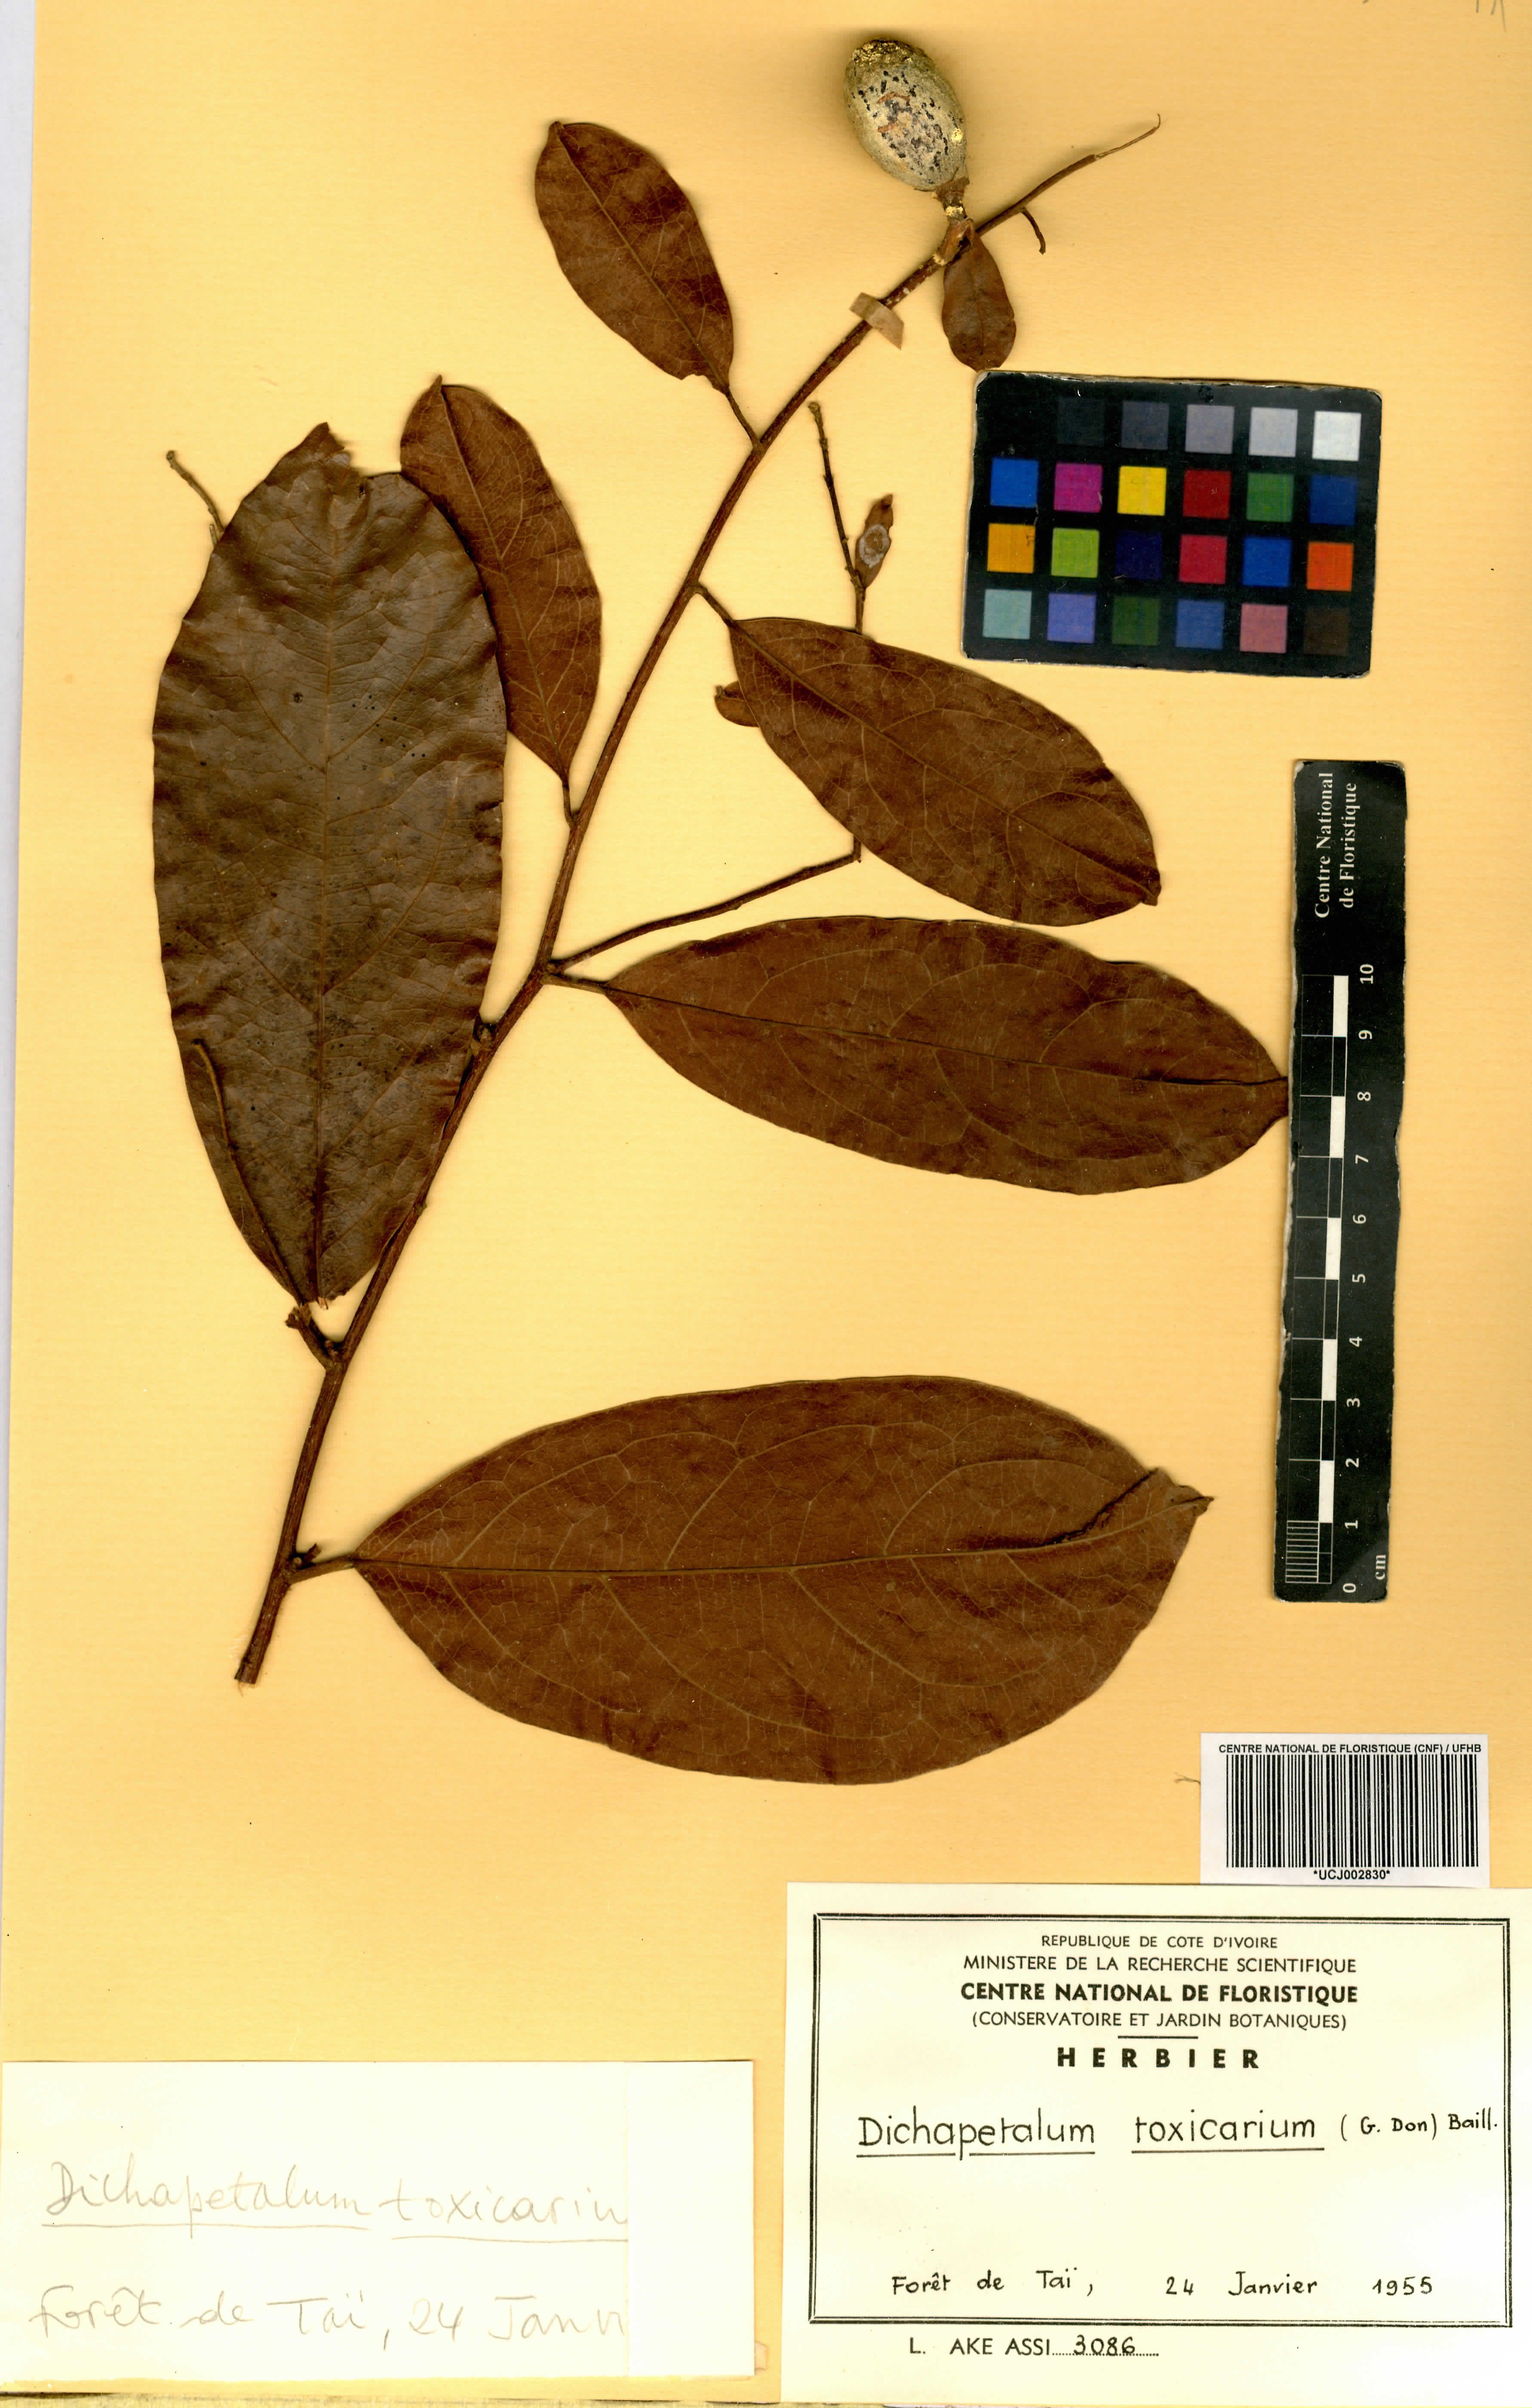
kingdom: Plantae
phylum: Tracheophyta
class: Magnoliopsida
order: Malpighiales
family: Dichapetalaceae
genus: Dichapetalum
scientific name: Dichapetalum toxicarium
